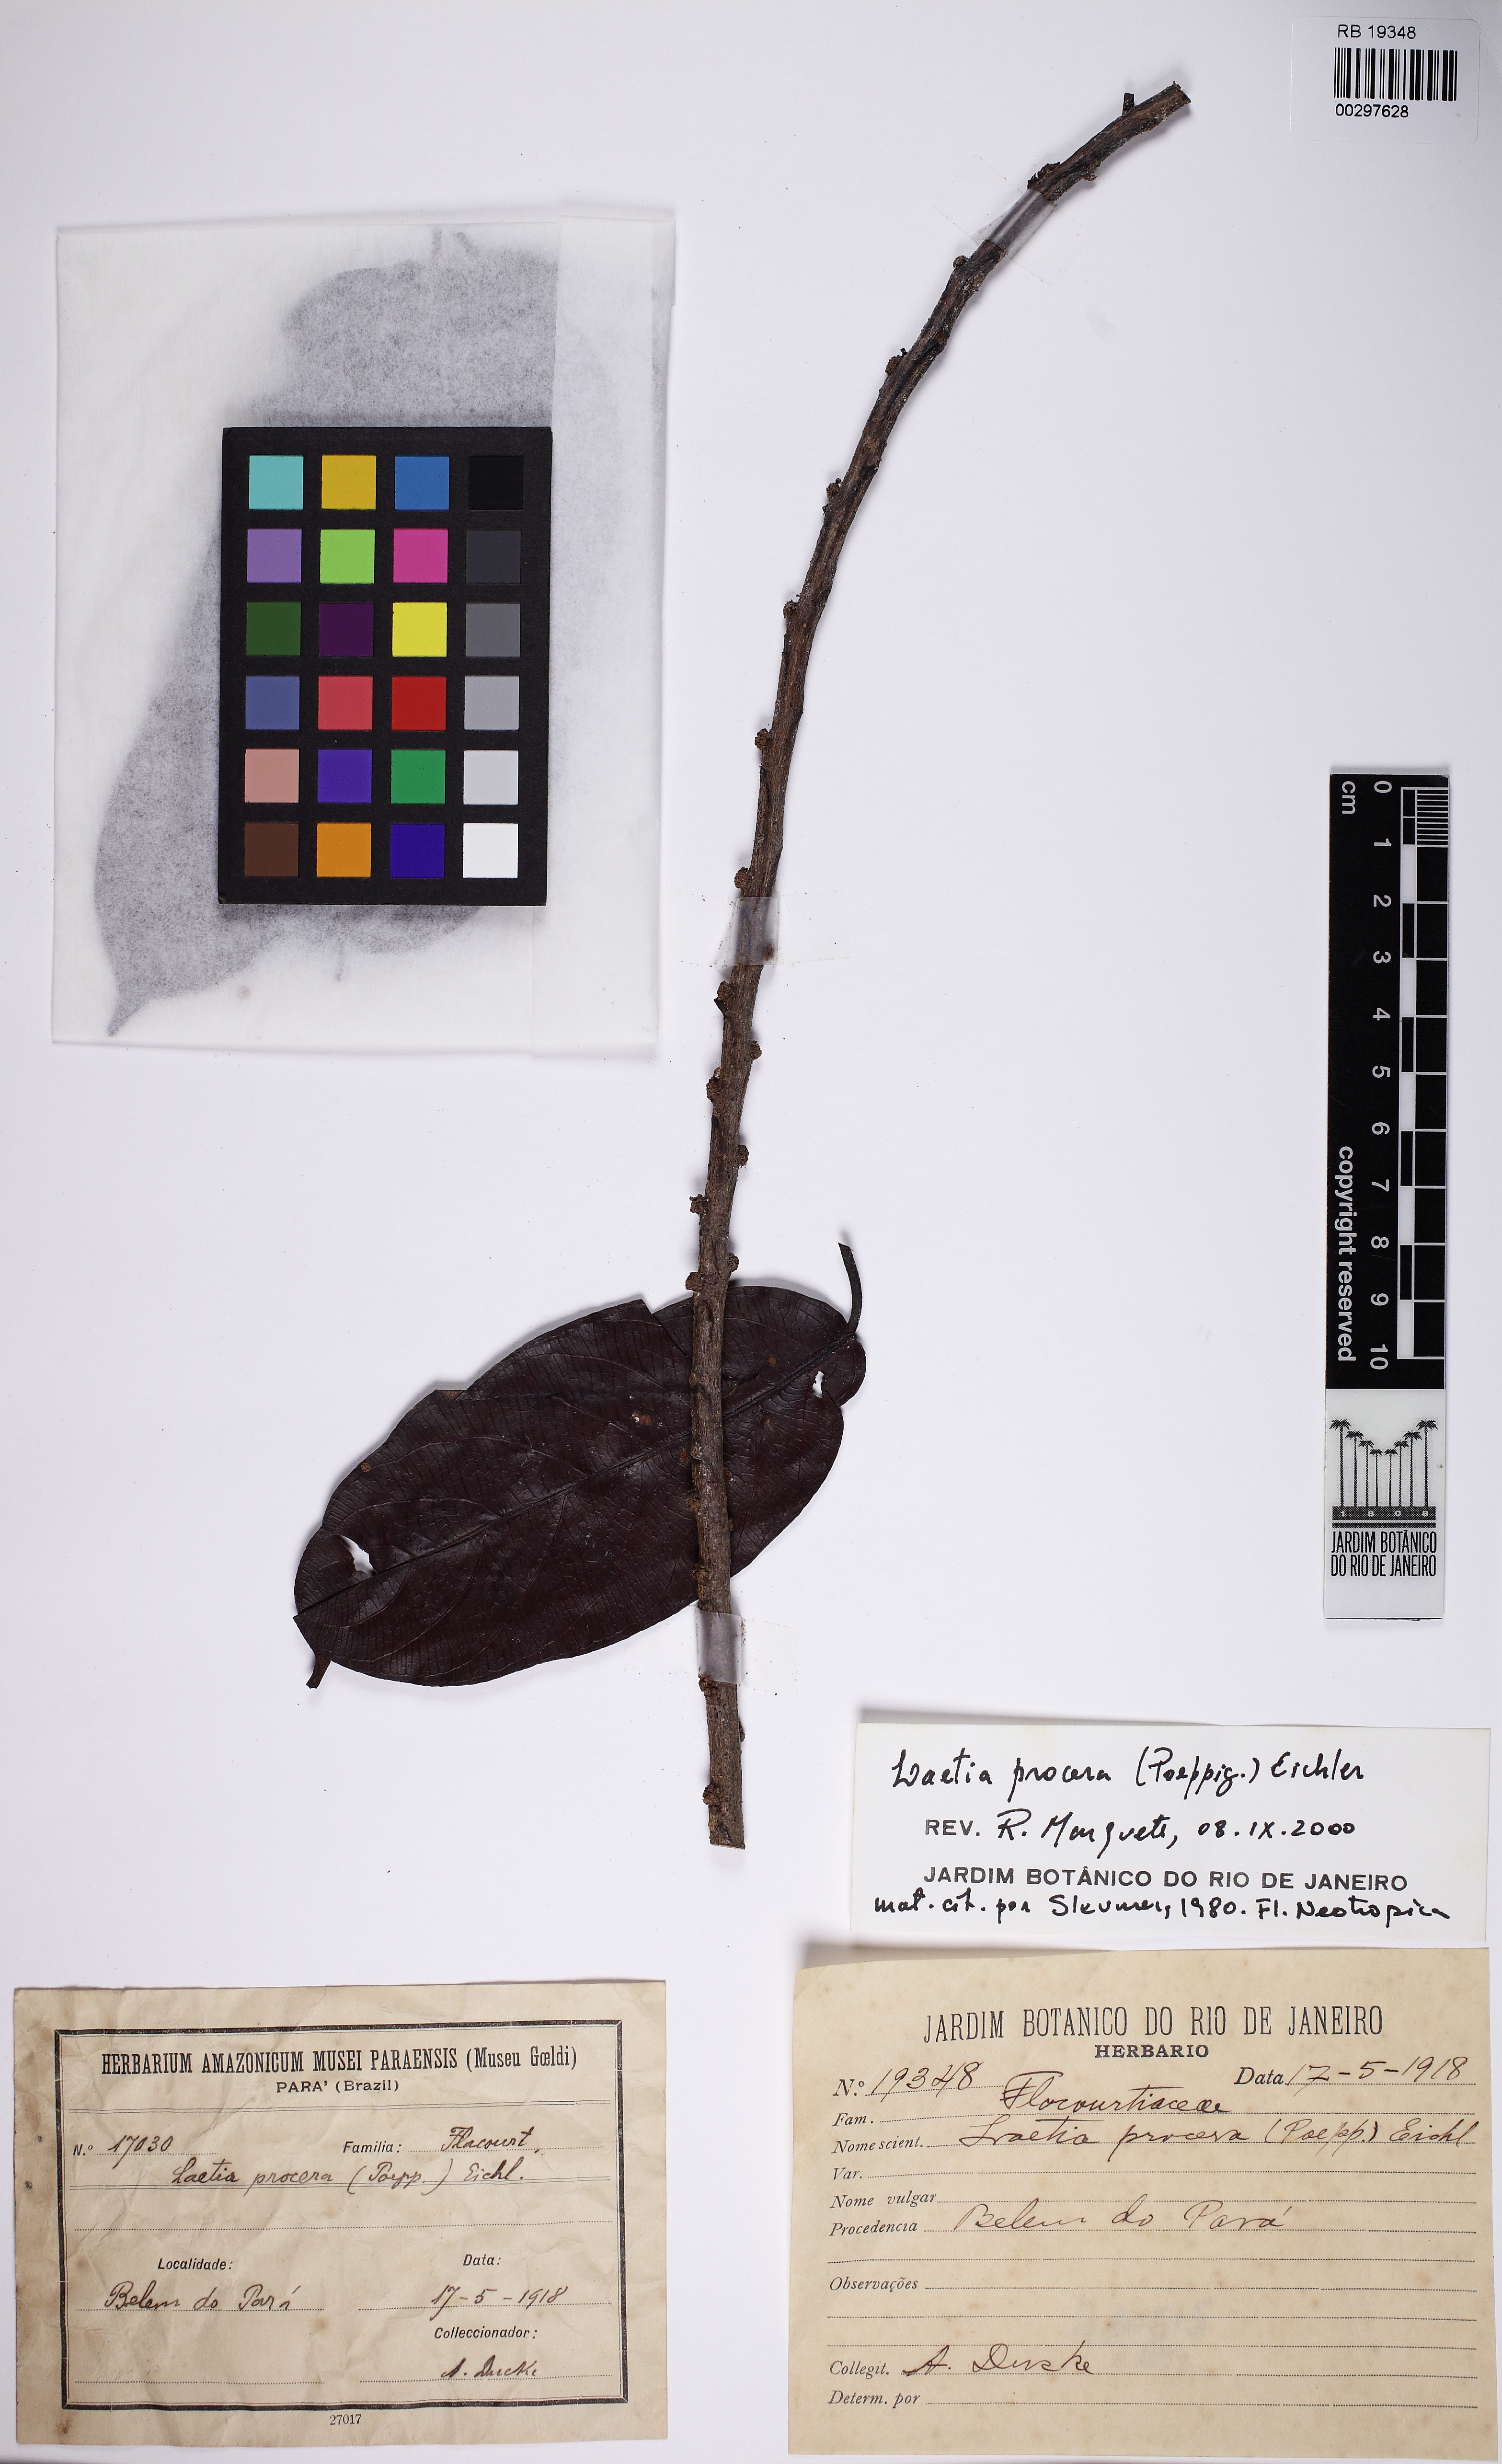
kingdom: Plantae
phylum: Tracheophyta
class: Magnoliopsida
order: Malpighiales
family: Salicaceae
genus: Casearia
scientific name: Casearia bicolor
